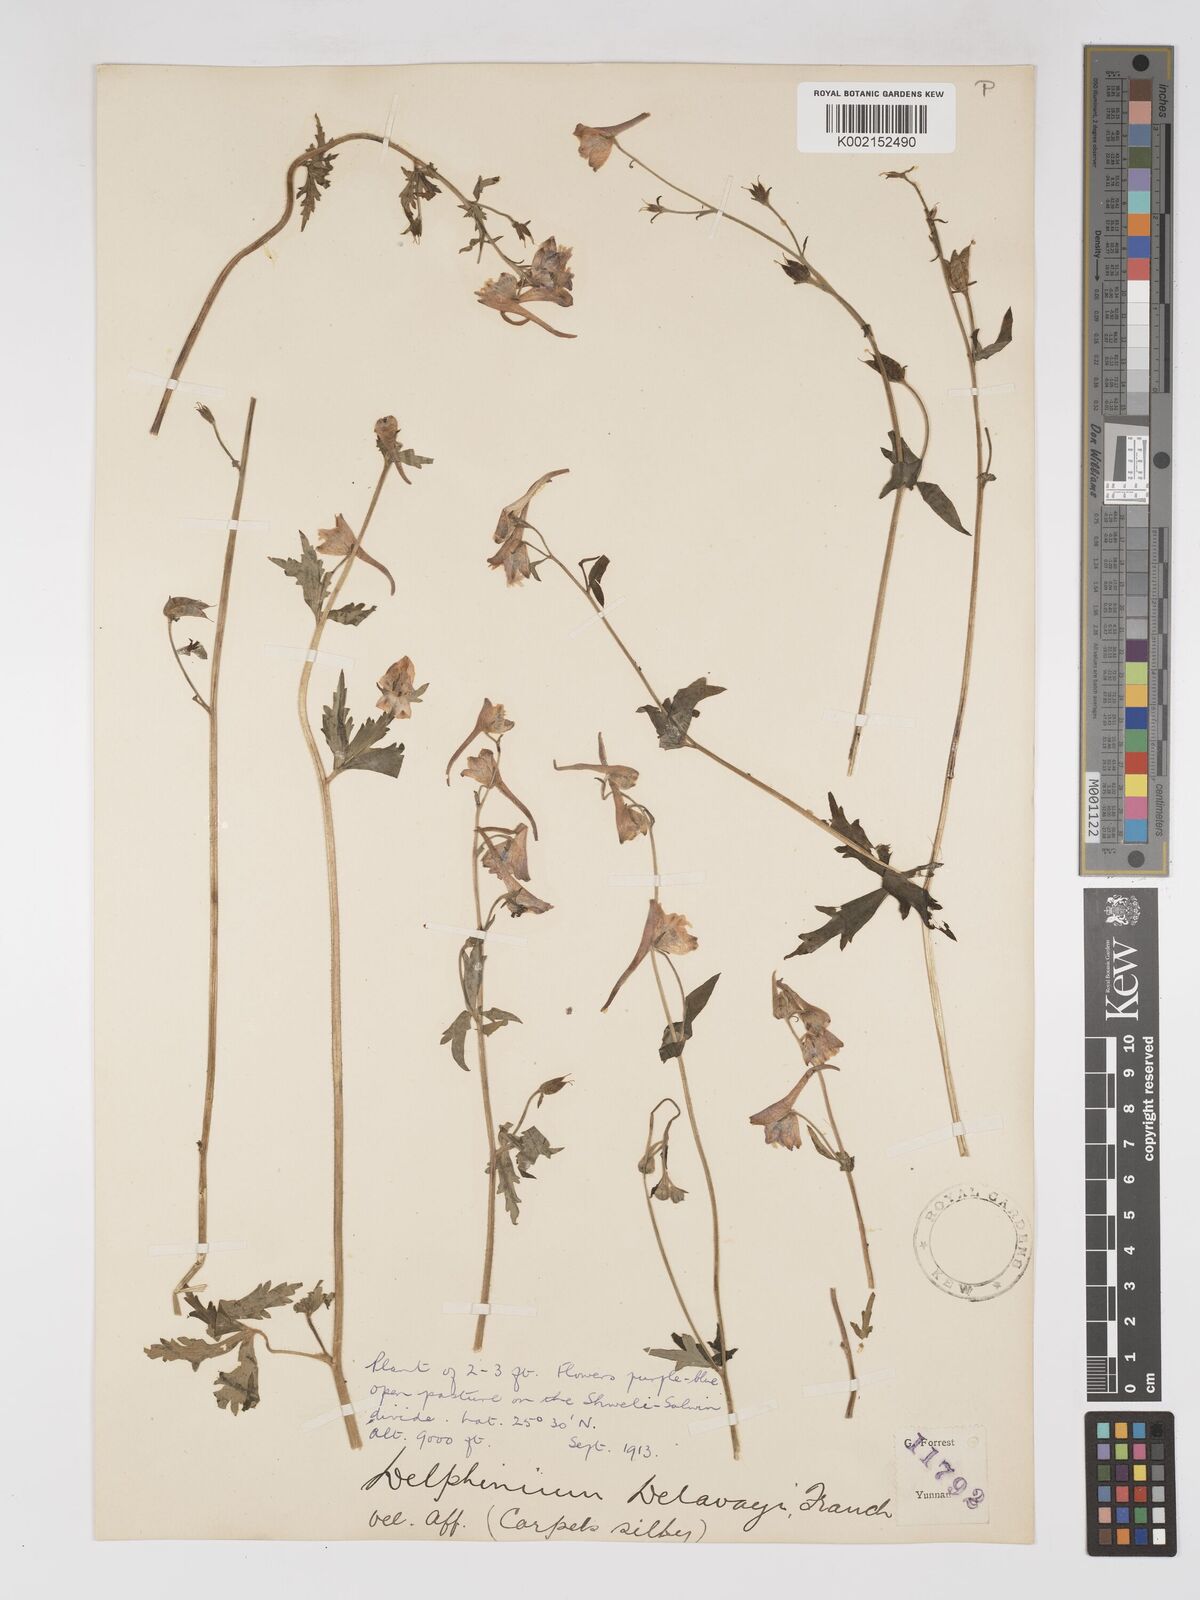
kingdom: Plantae
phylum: Tracheophyta
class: Magnoliopsida
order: Ranunculales
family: Ranunculaceae
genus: Delphinium
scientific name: Delphinium delavayi
